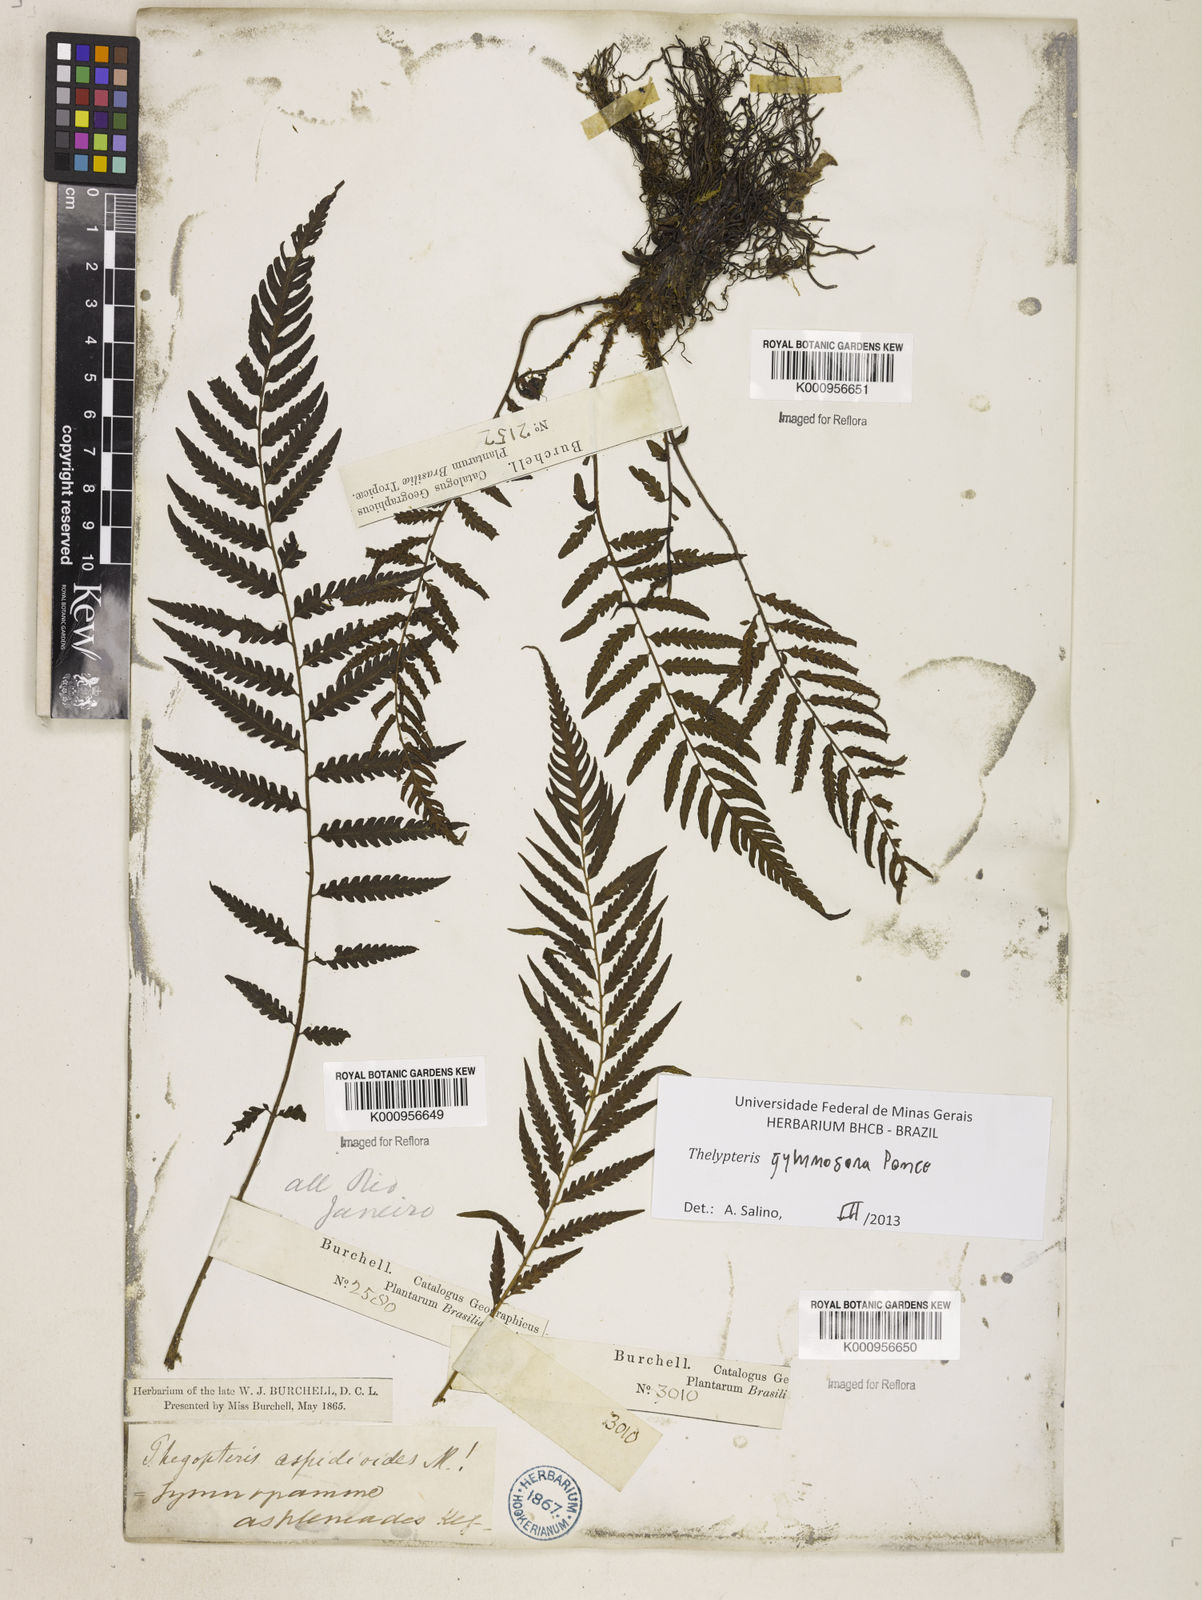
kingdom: Plantae
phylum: Tracheophyta
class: Polypodiopsida
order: Polypodiales
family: Thelypteridaceae
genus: Amauropelta
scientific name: Amauropelta
